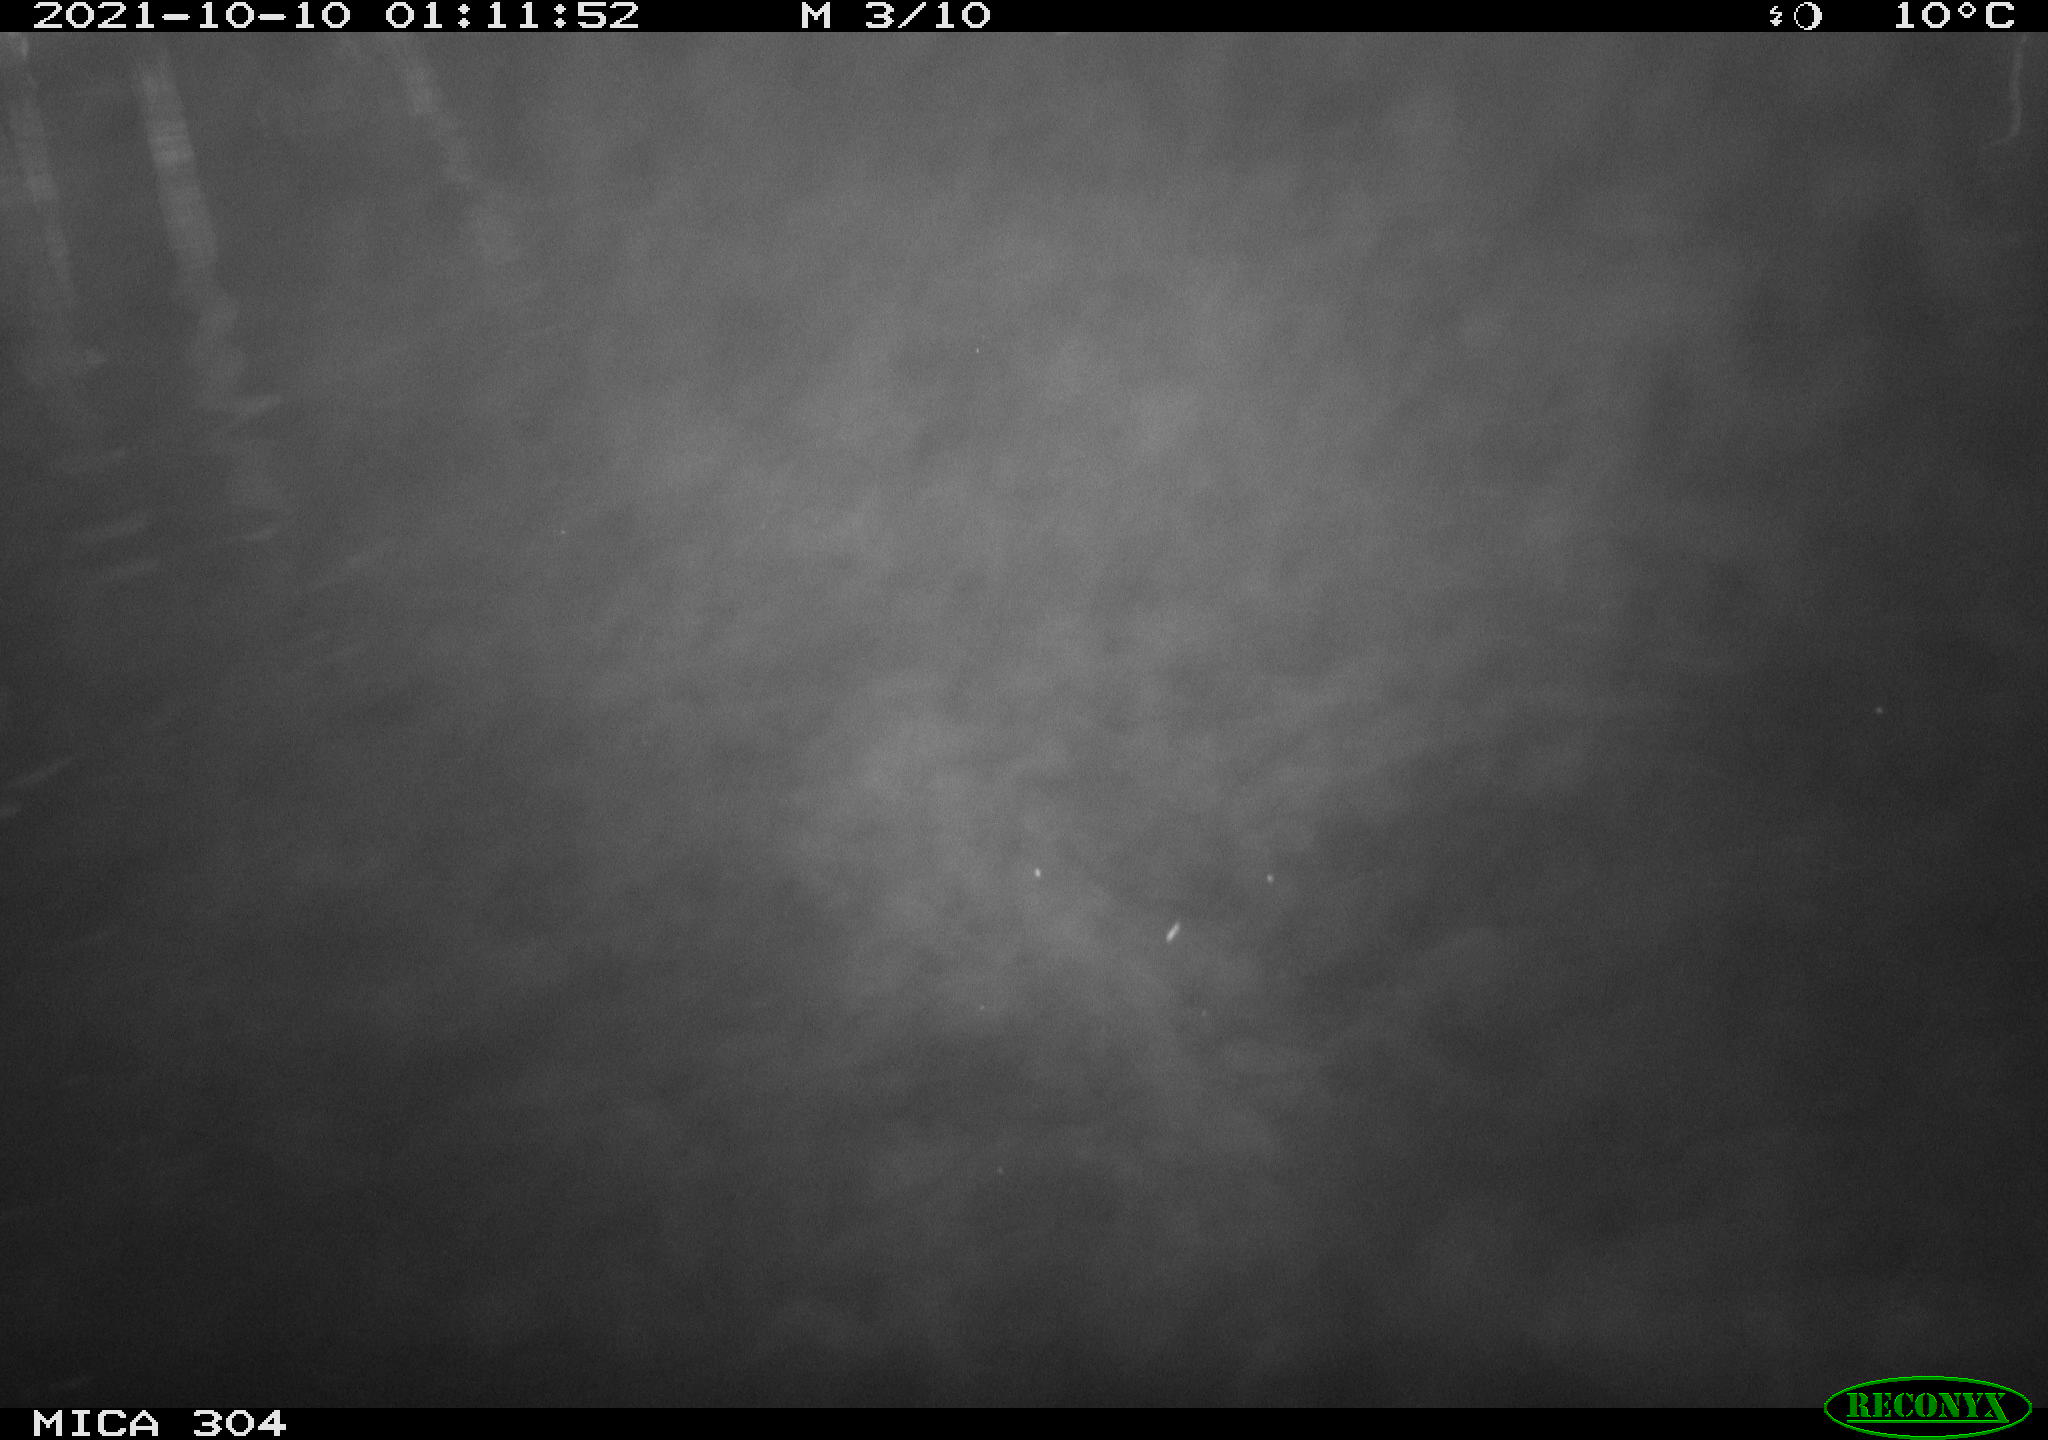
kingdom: Animalia
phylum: Chordata
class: Mammalia
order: Rodentia
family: Muridae
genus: Rattus
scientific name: Rattus norvegicus
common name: Brown rat
